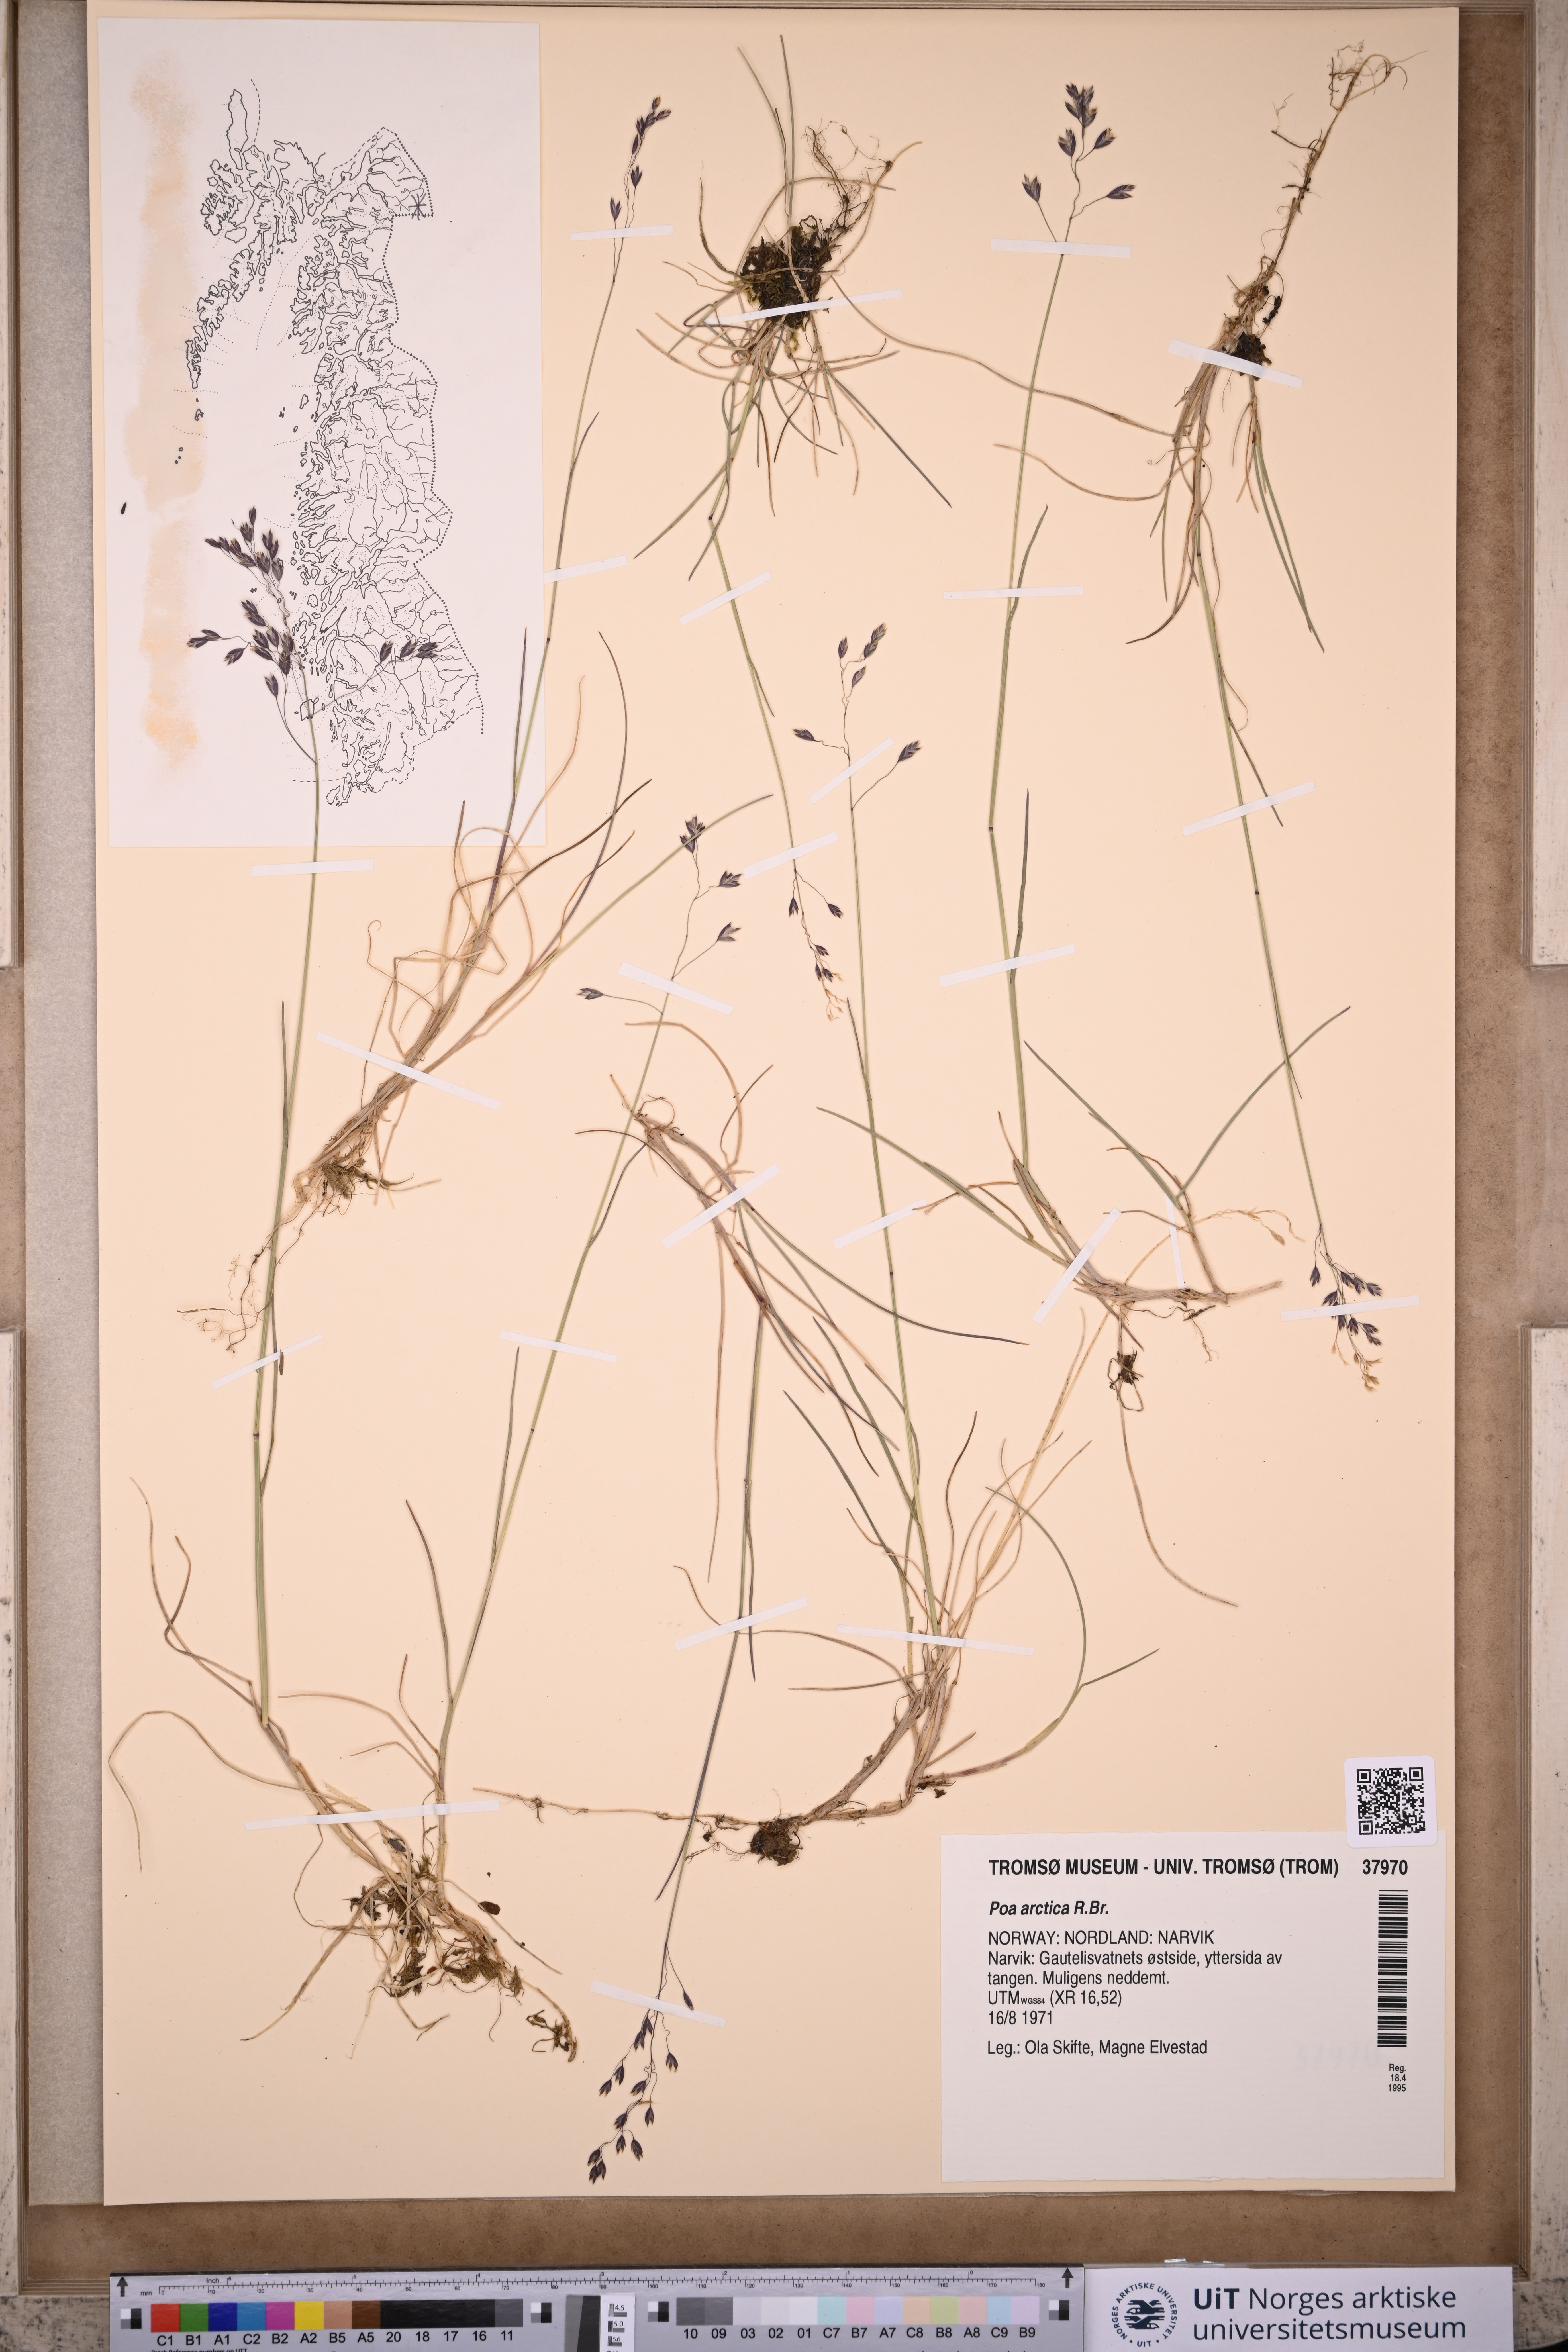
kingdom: Plantae
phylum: Tracheophyta
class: Liliopsida
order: Poales
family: Poaceae
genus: Poa
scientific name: Poa arctica
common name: Arctic bluegrass
